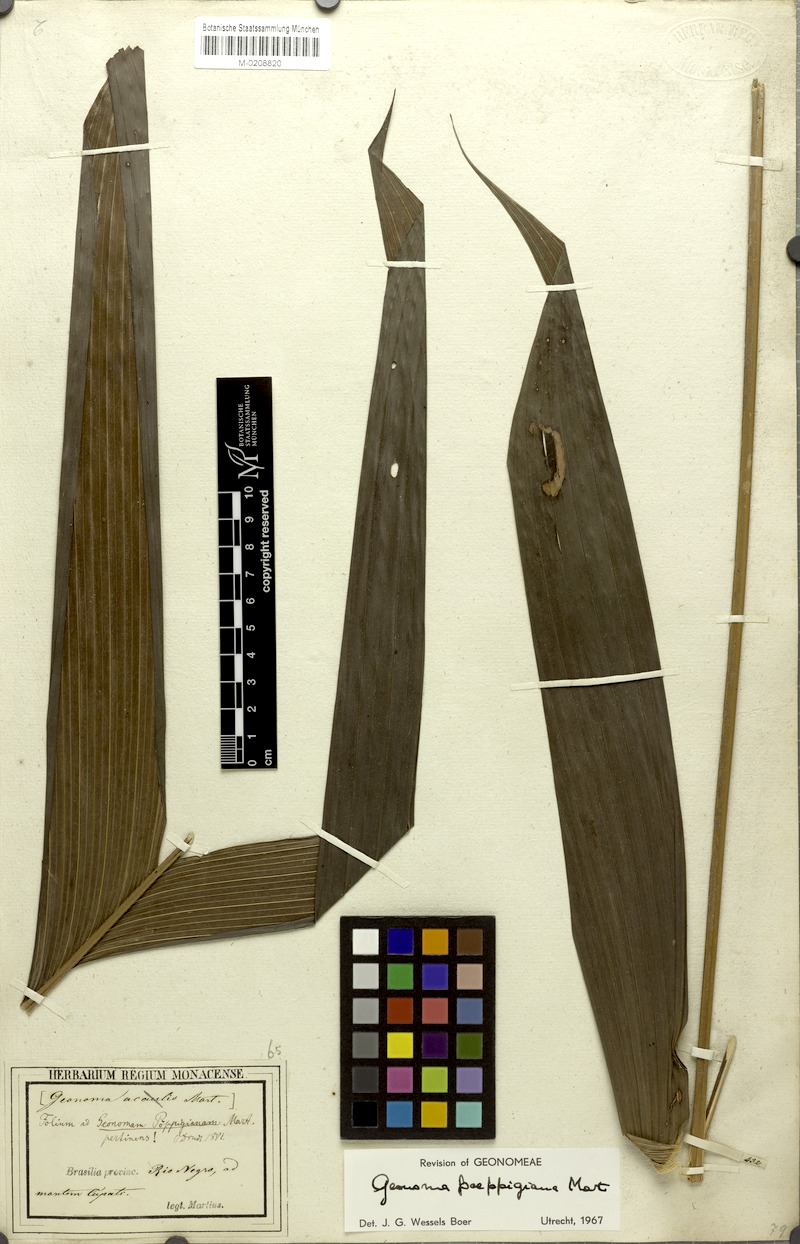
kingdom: Plantae
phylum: Tracheophyta
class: Liliopsida
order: Arecales
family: Arecaceae
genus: Geonoma
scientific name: Geonoma poeppigiana
